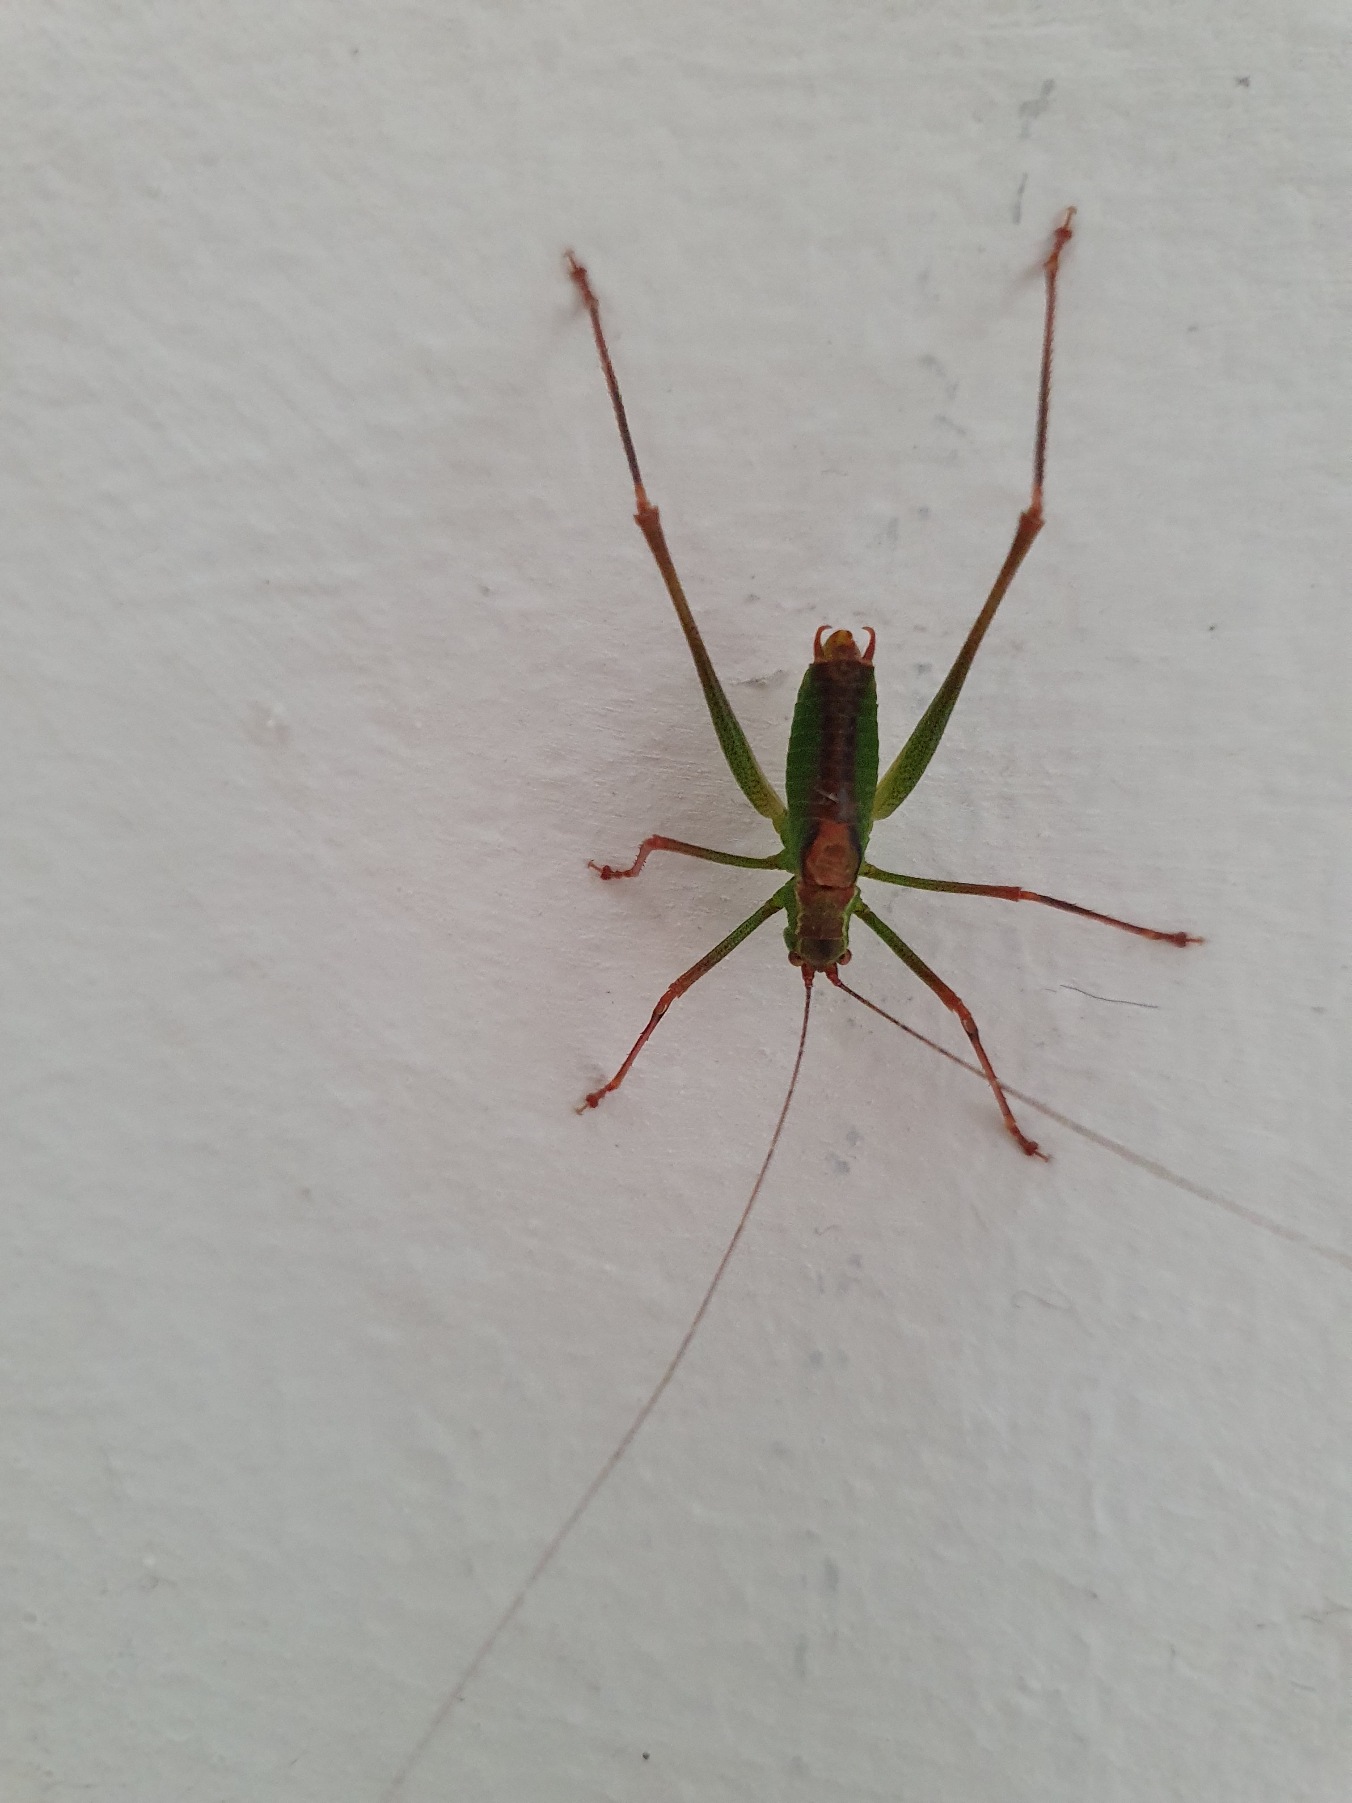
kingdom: Animalia
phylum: Arthropoda
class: Insecta
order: Orthoptera
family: Tettigoniidae
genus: Leptophyes
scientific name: Leptophyes punctatissima
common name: Krumknivgræshoppe
